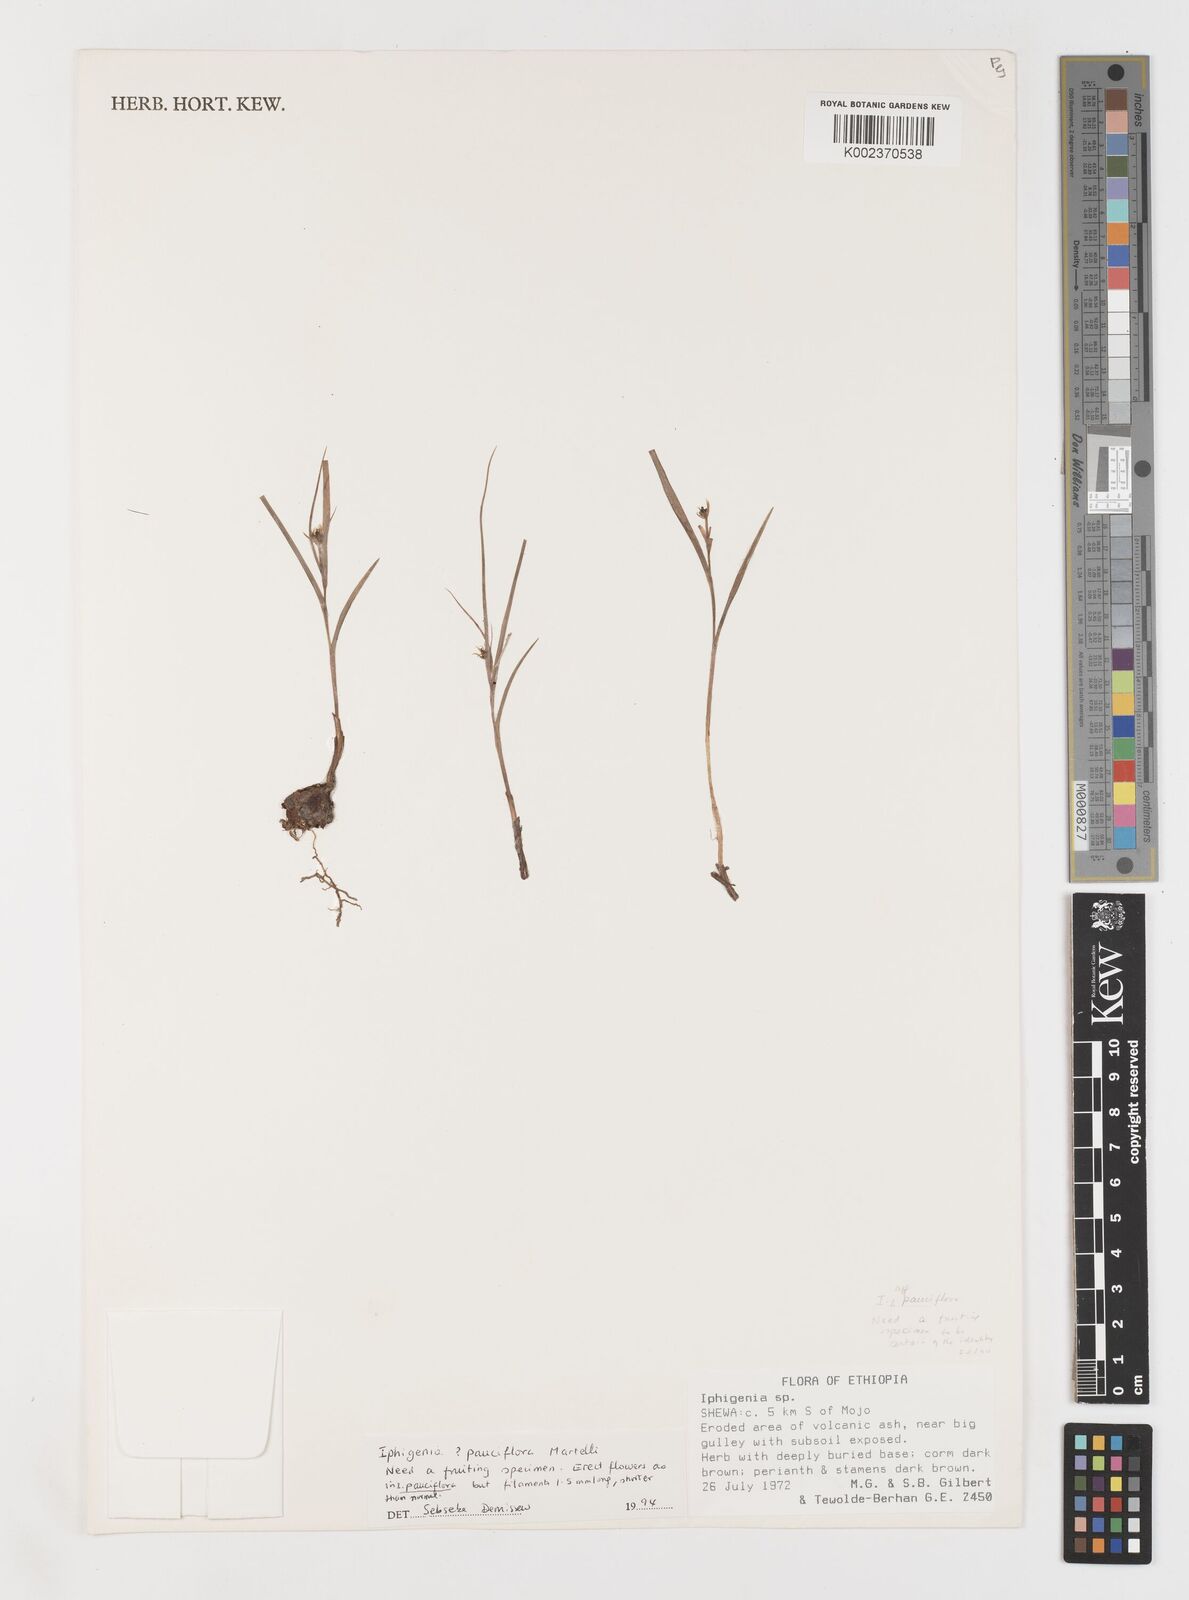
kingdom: Plantae
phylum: Tracheophyta
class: Liliopsida
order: Liliales
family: Colchicaceae
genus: Iphigenia
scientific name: Iphigenia pauciflora
